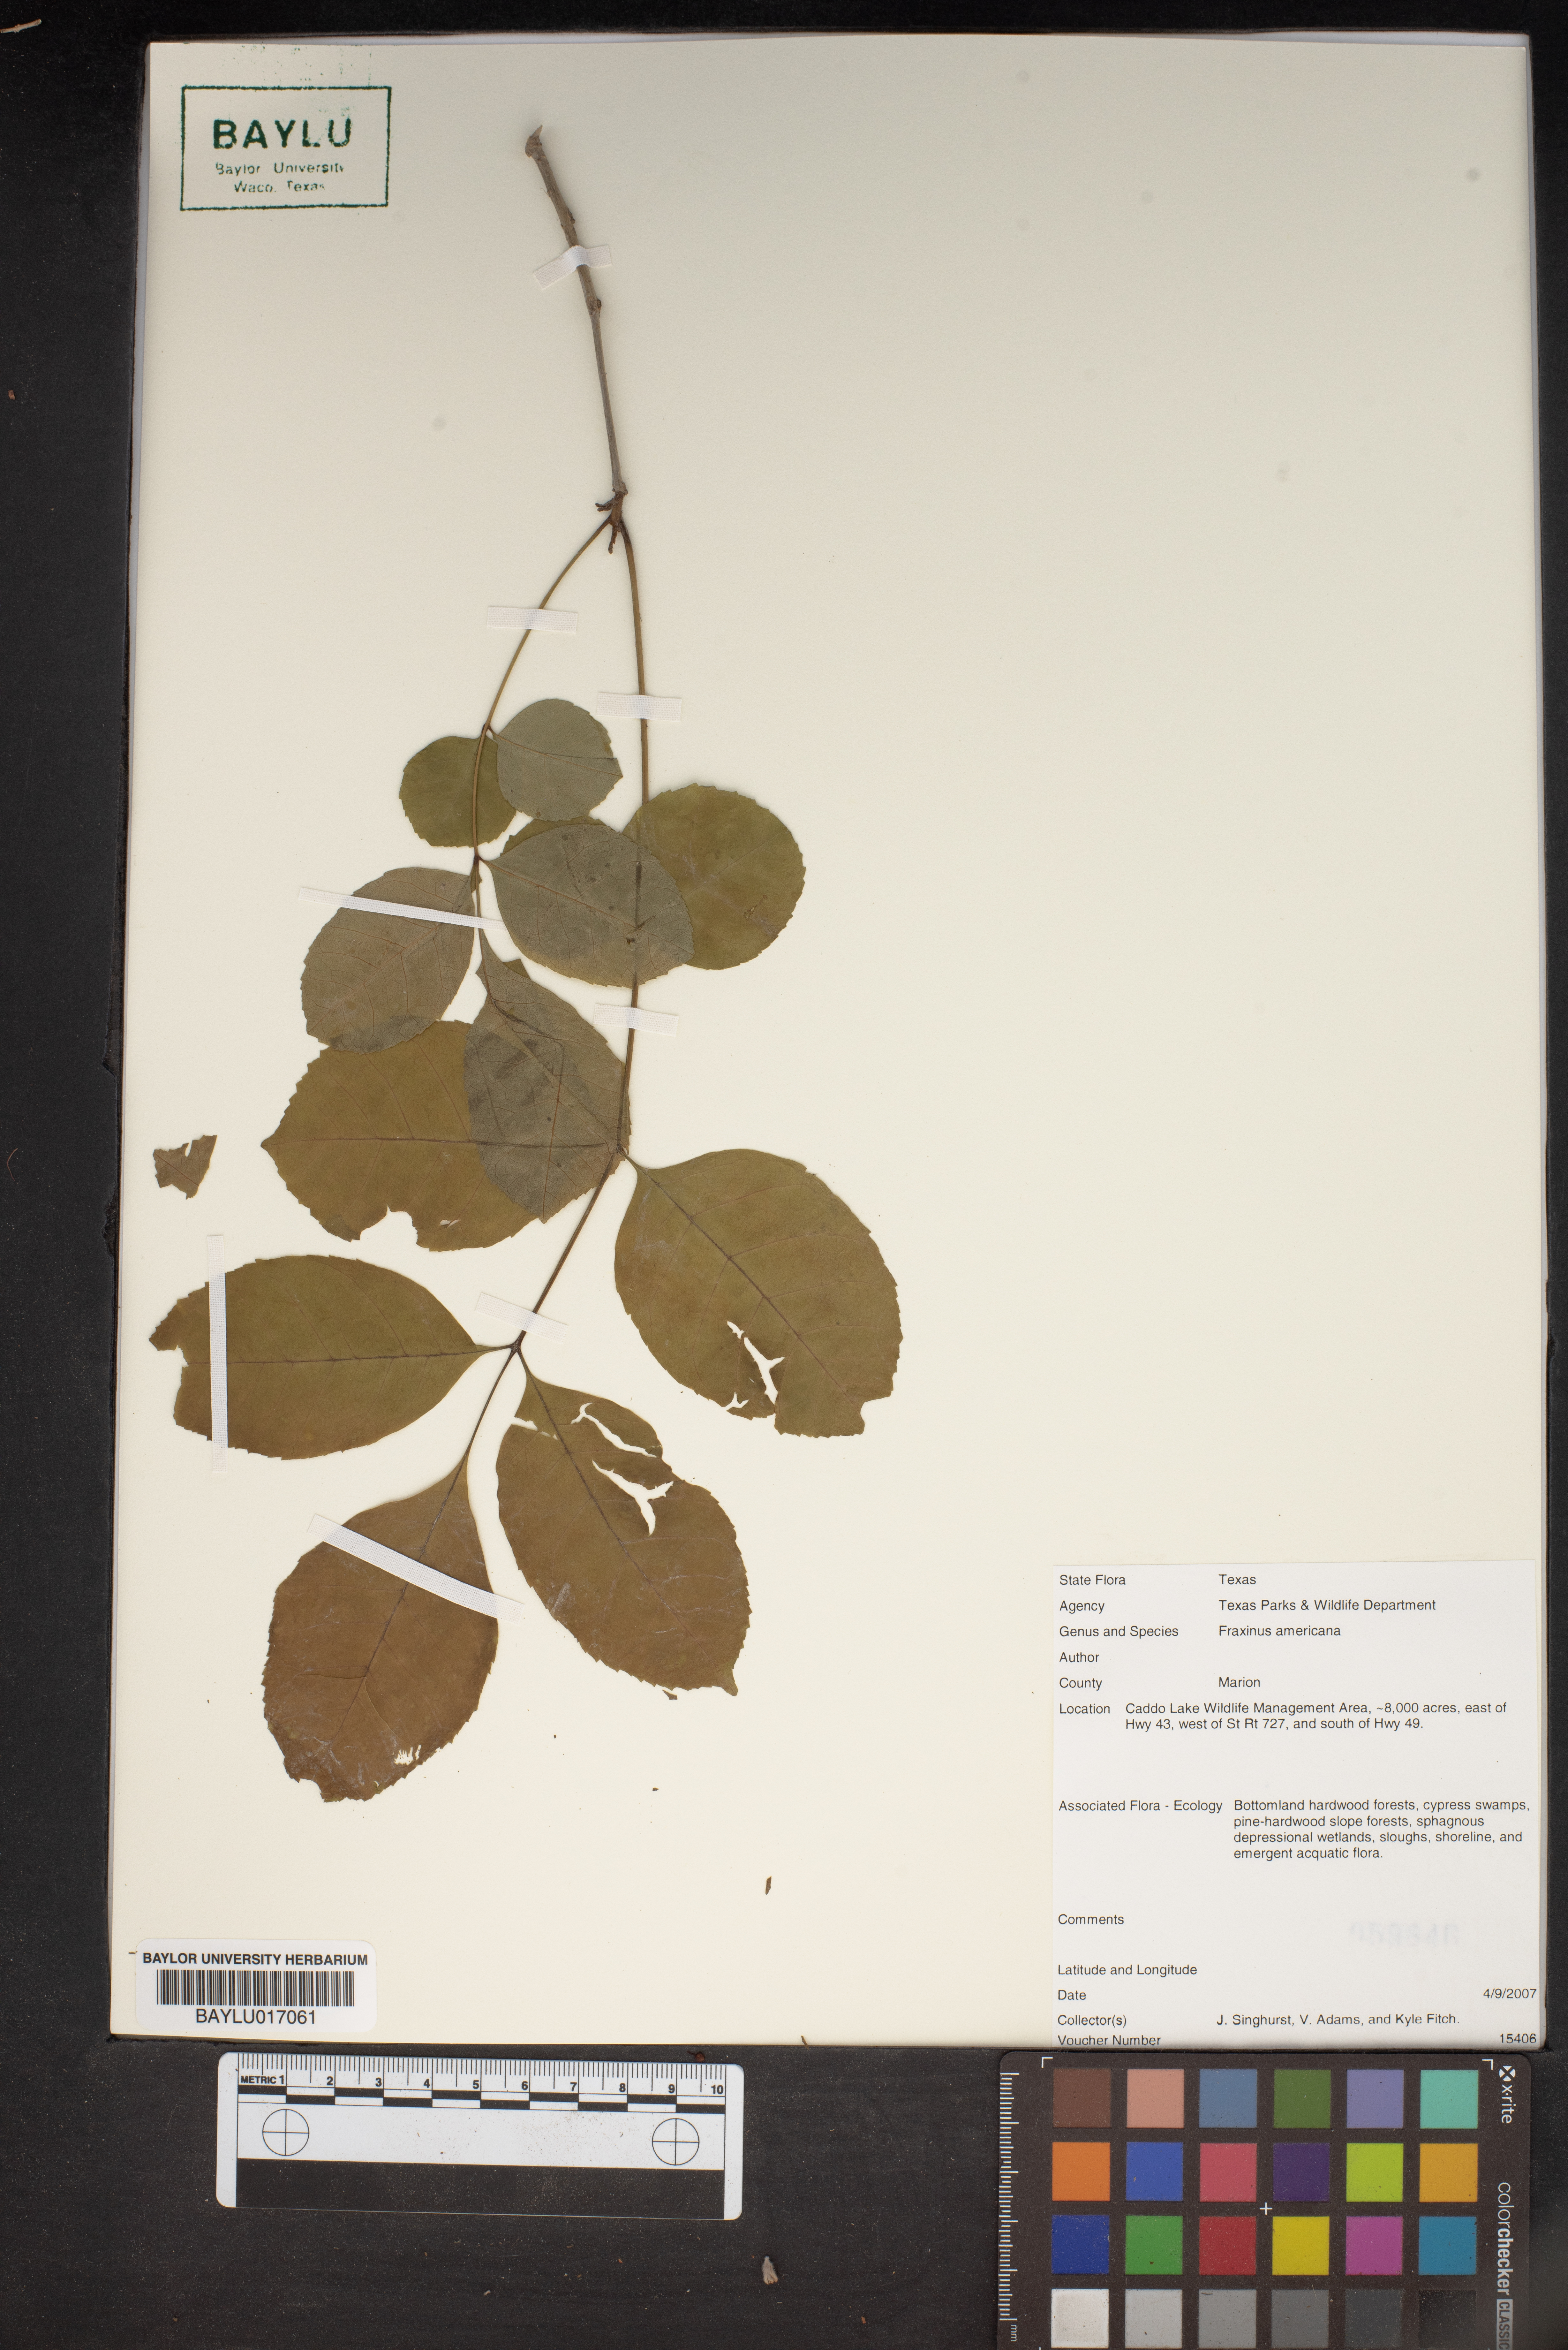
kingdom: Plantae
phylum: Tracheophyta
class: Magnoliopsida
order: Lamiales
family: Oleaceae
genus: Fraxinus
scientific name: Fraxinus americana
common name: White ash
